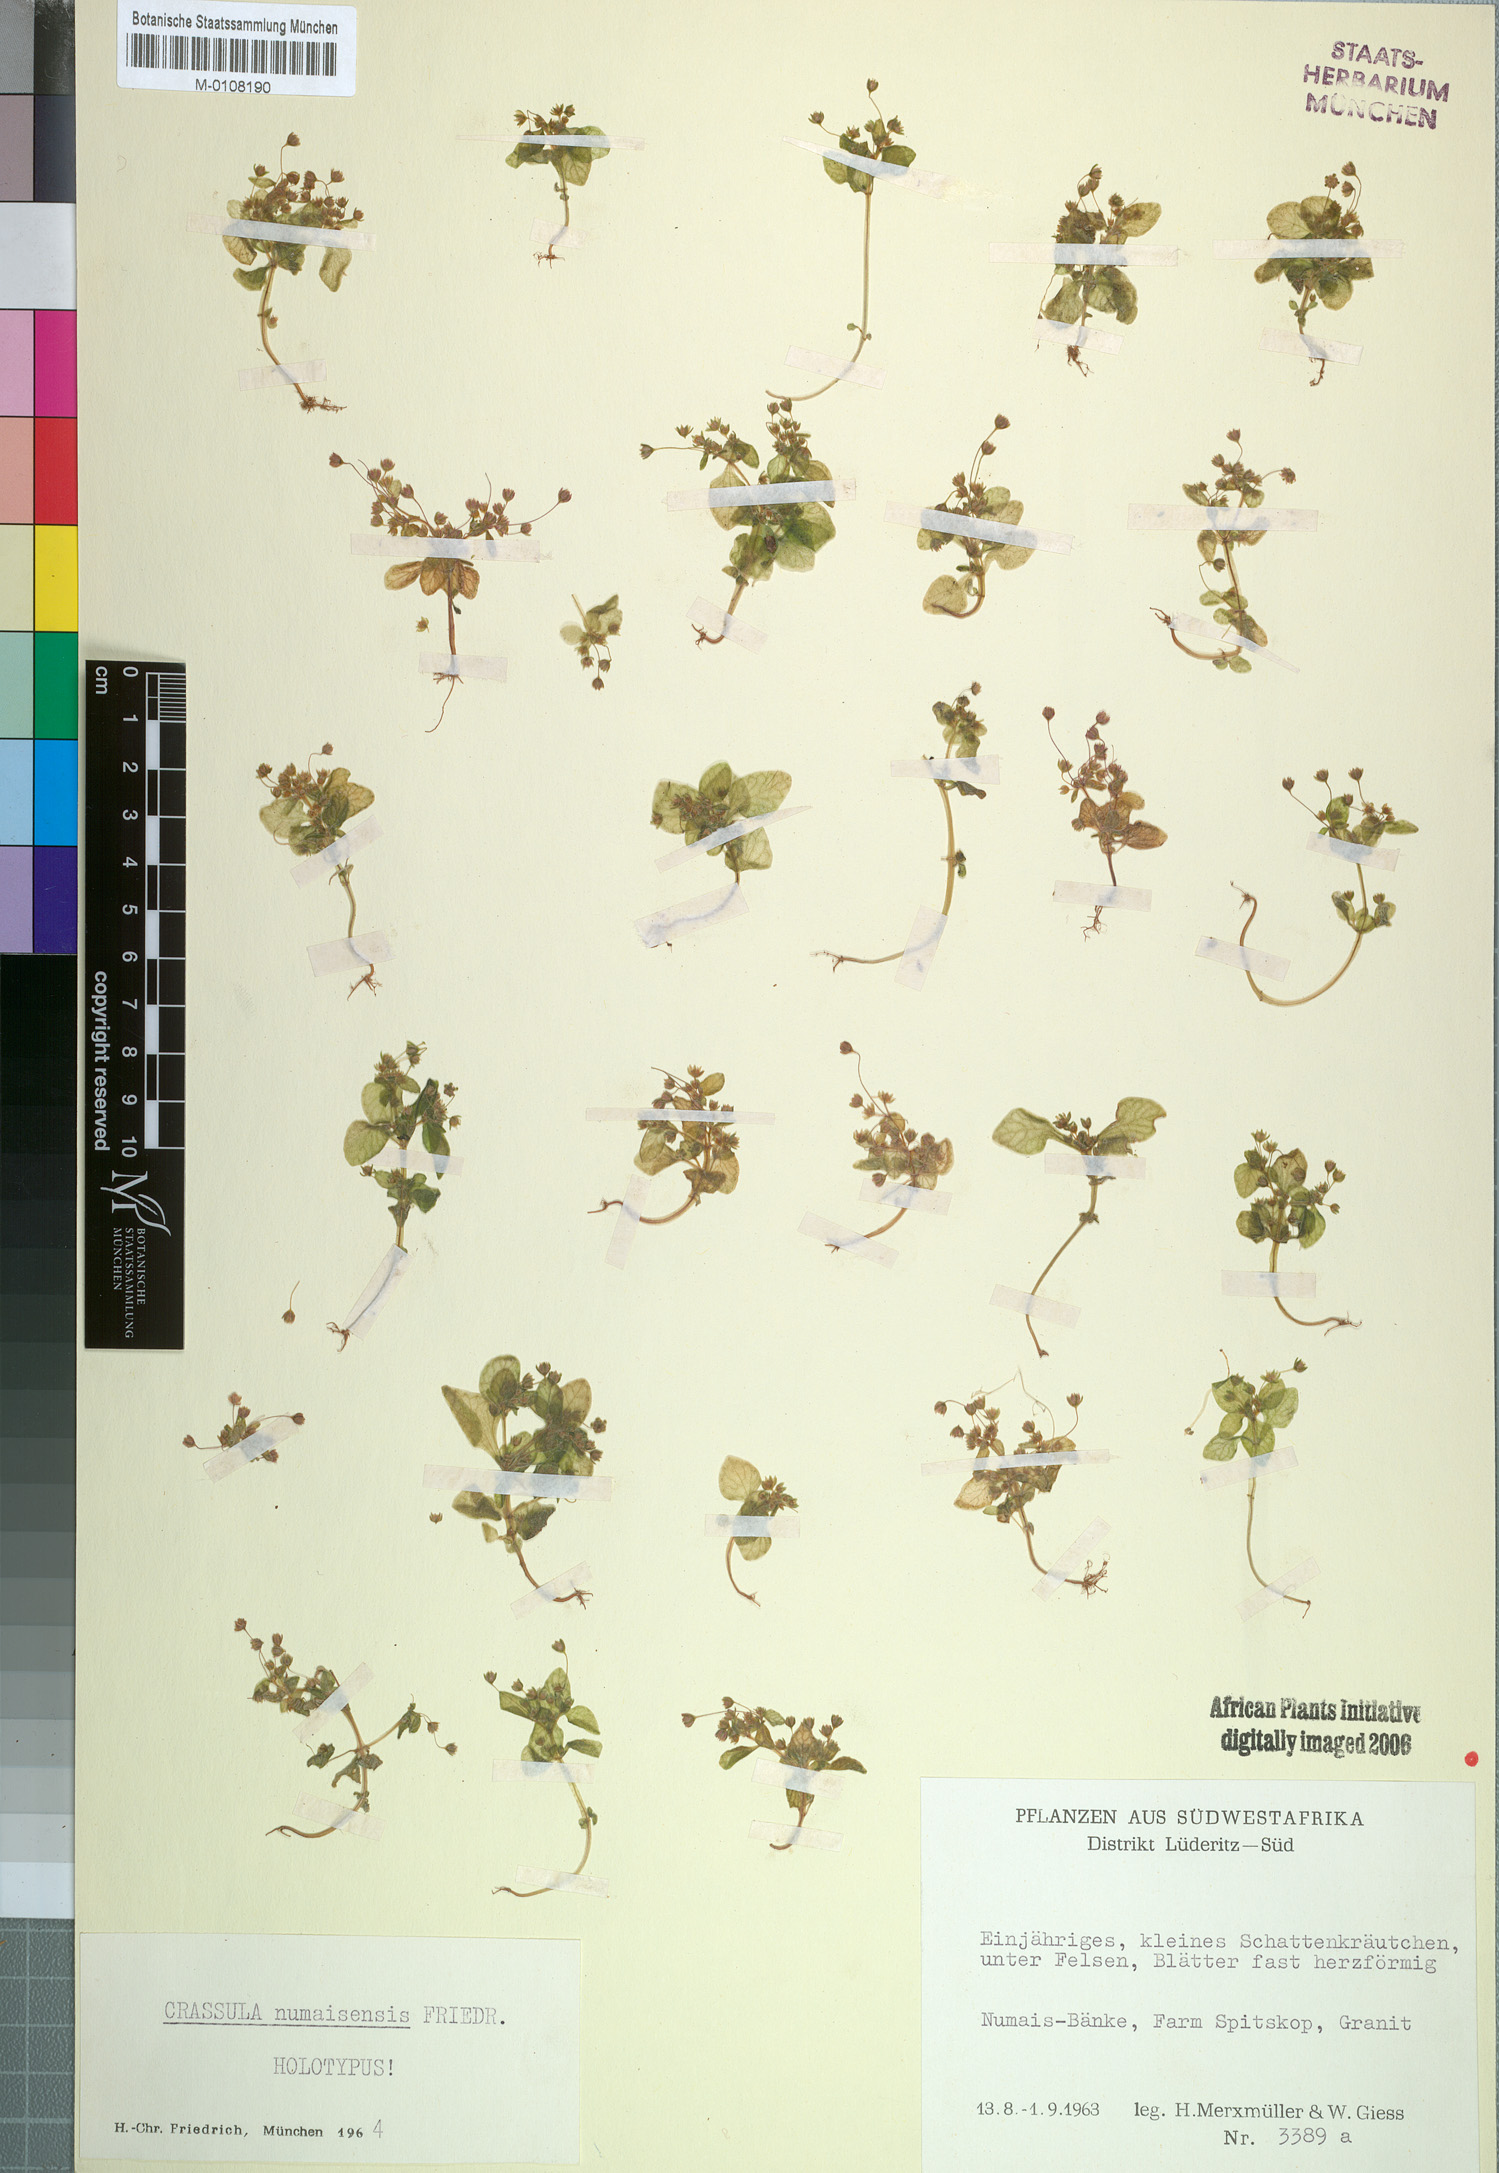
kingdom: Plantae
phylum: Tracheophyta
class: Magnoliopsida
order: Saxifragales
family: Crassulaceae
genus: Crassula
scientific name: Crassula numaisensis
